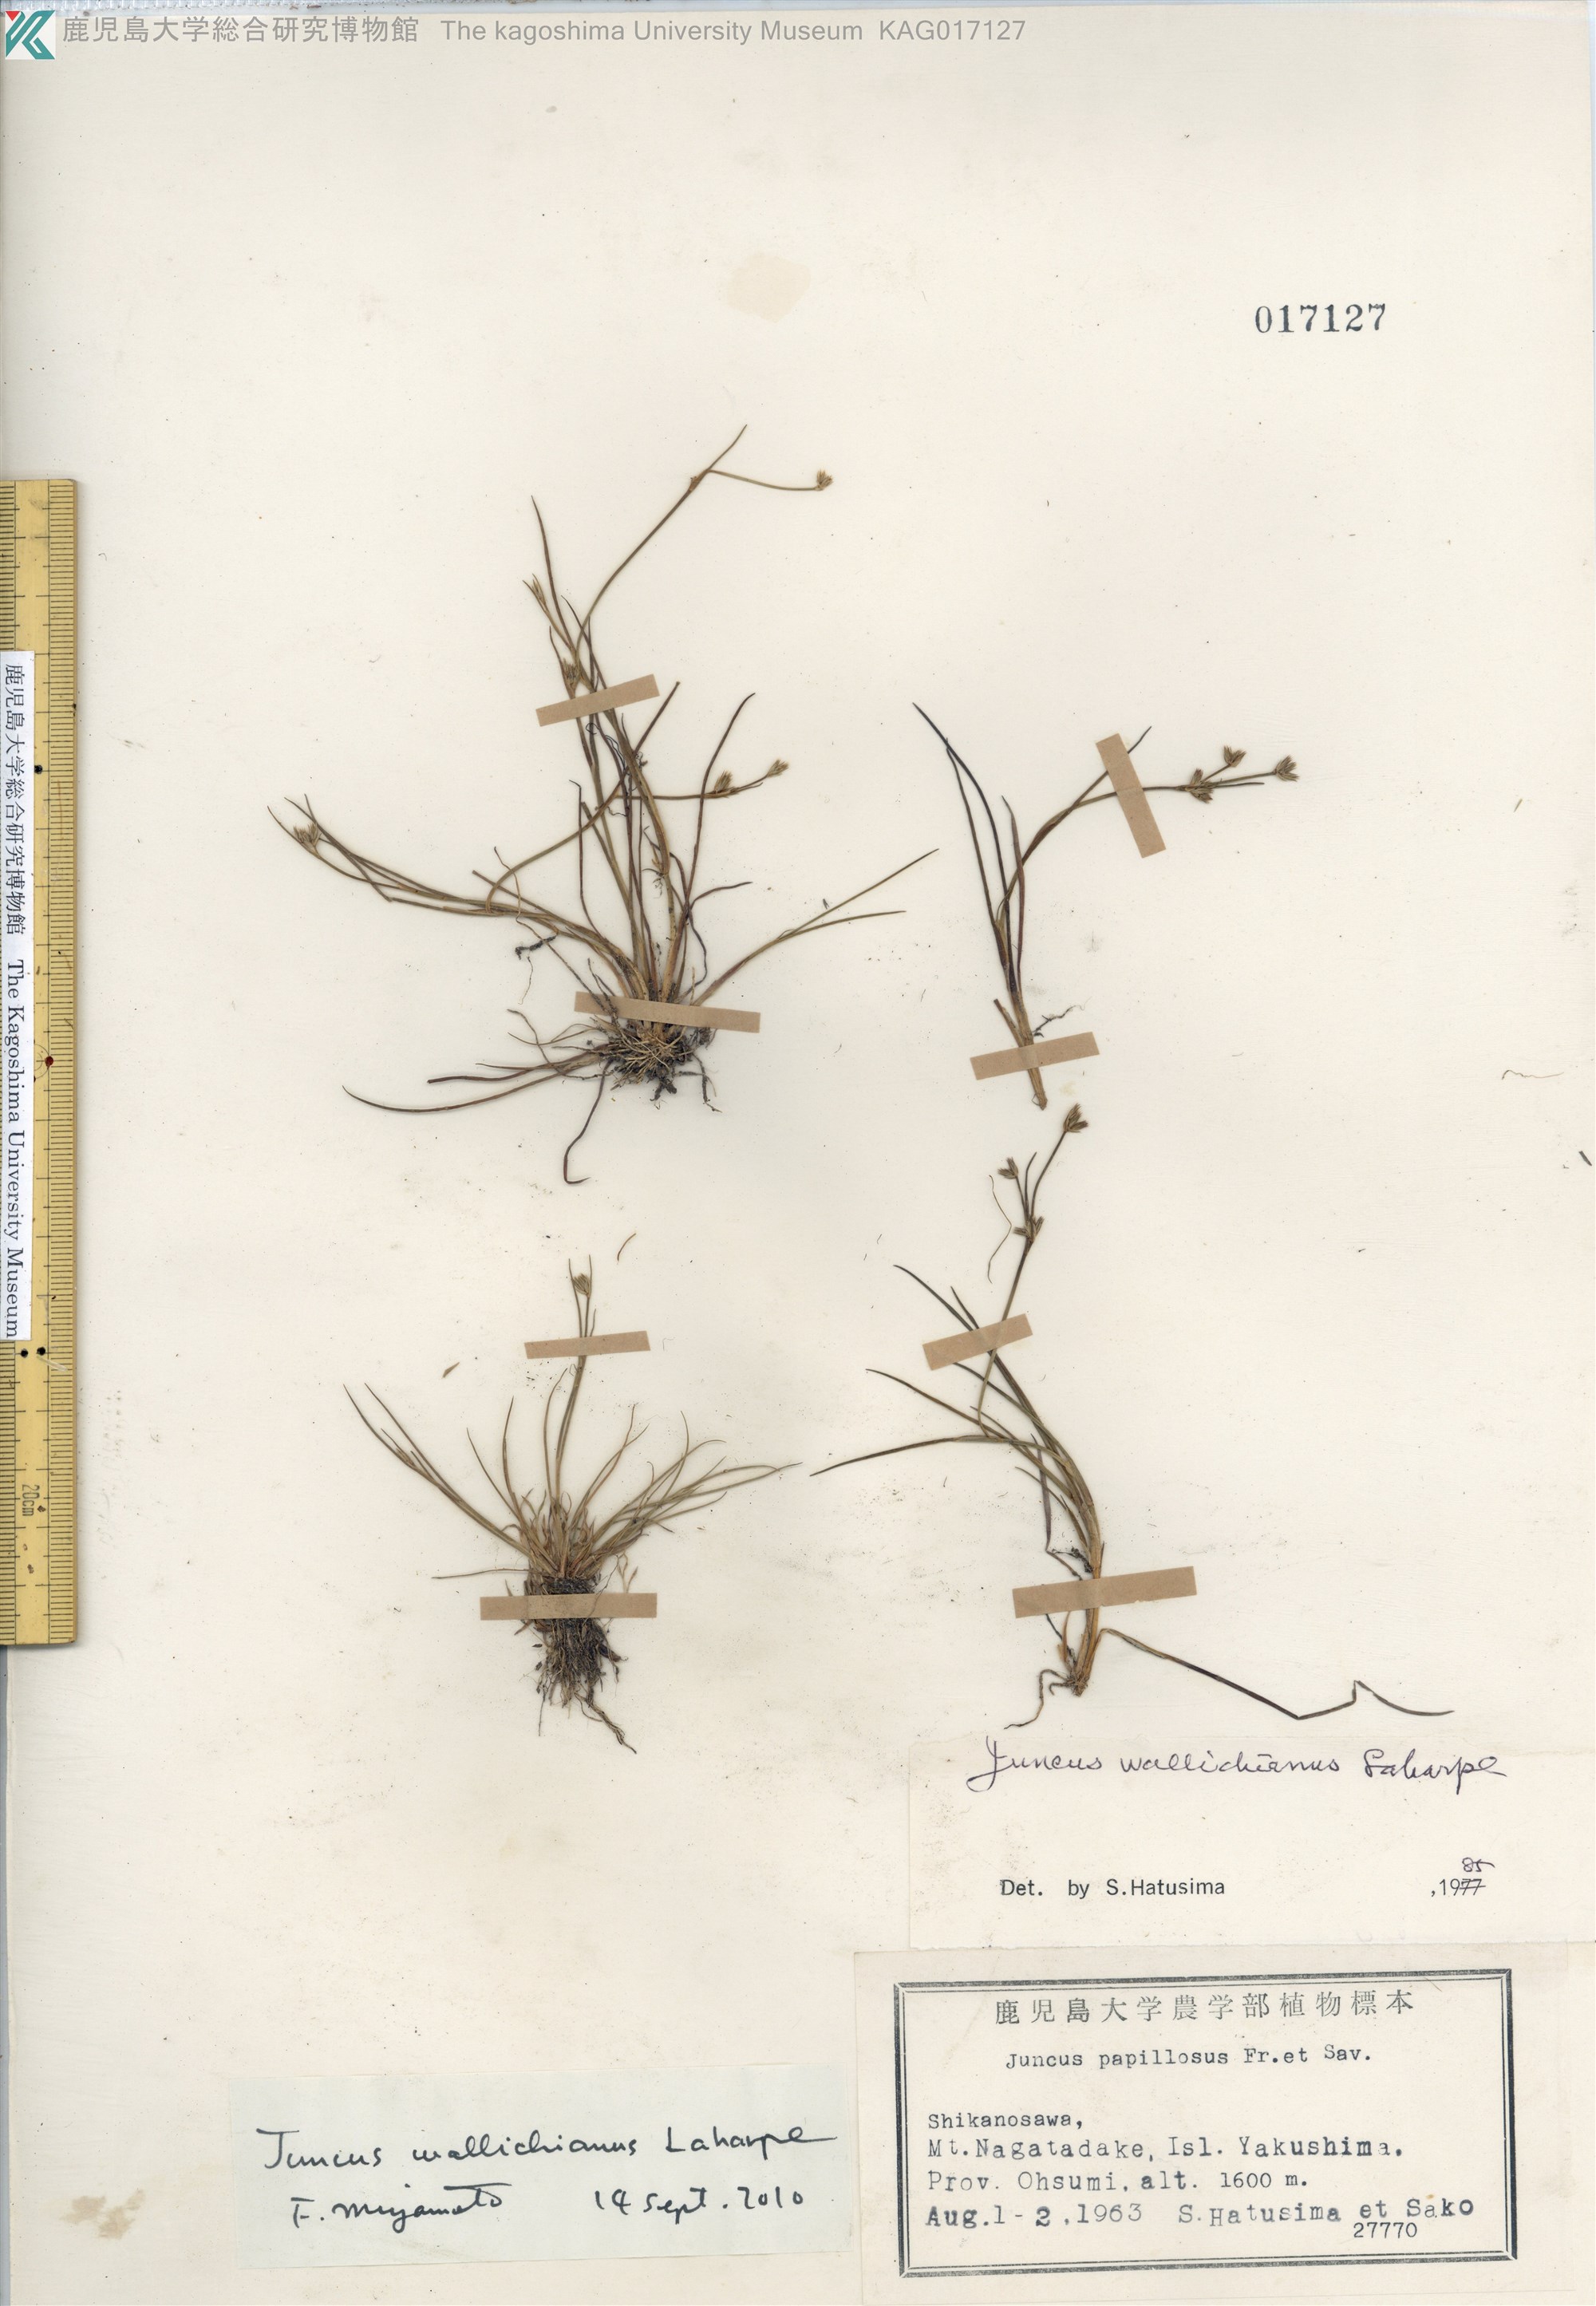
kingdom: Plantae
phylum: Tracheophyta
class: Liliopsida
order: Poales
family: Juncaceae
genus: Juncus
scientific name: Juncus wallichianus
